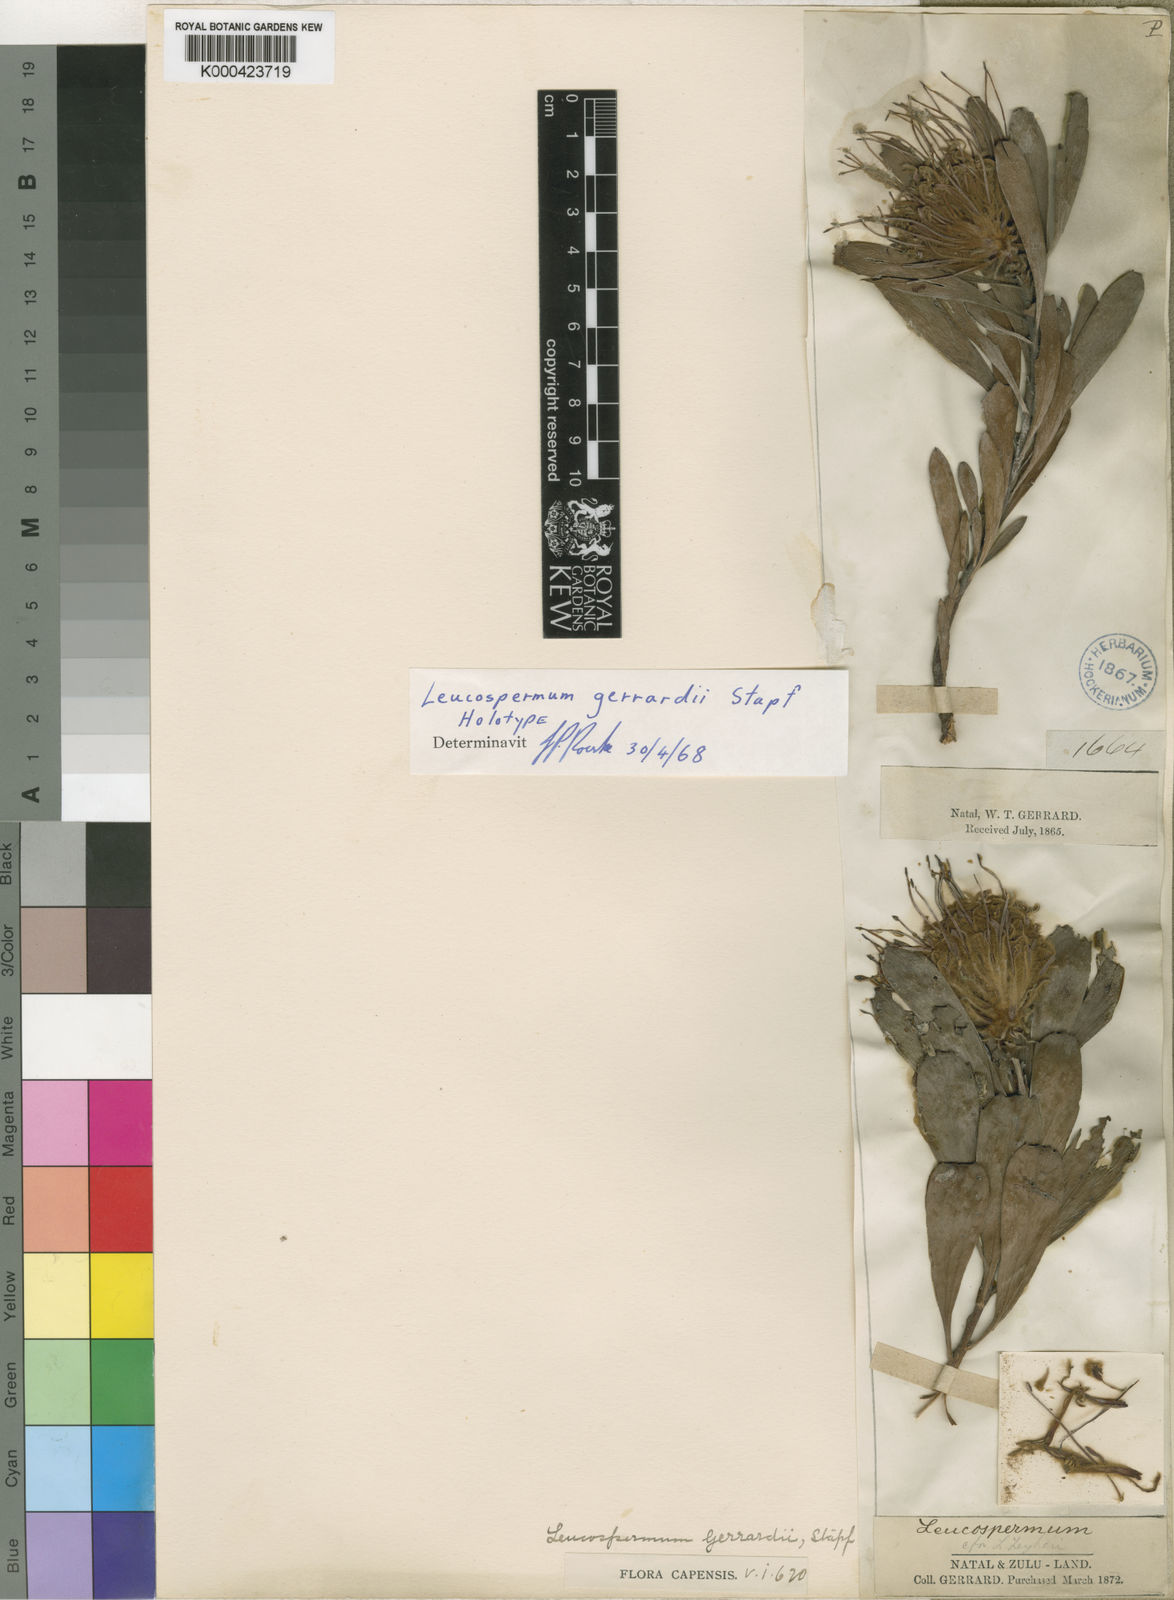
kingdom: Plantae
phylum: Tracheophyta
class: Magnoliopsida
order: Proteales
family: Proteaceae
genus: Leucospermum
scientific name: Leucospermum gerrardii
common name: Soapstone pincushion
